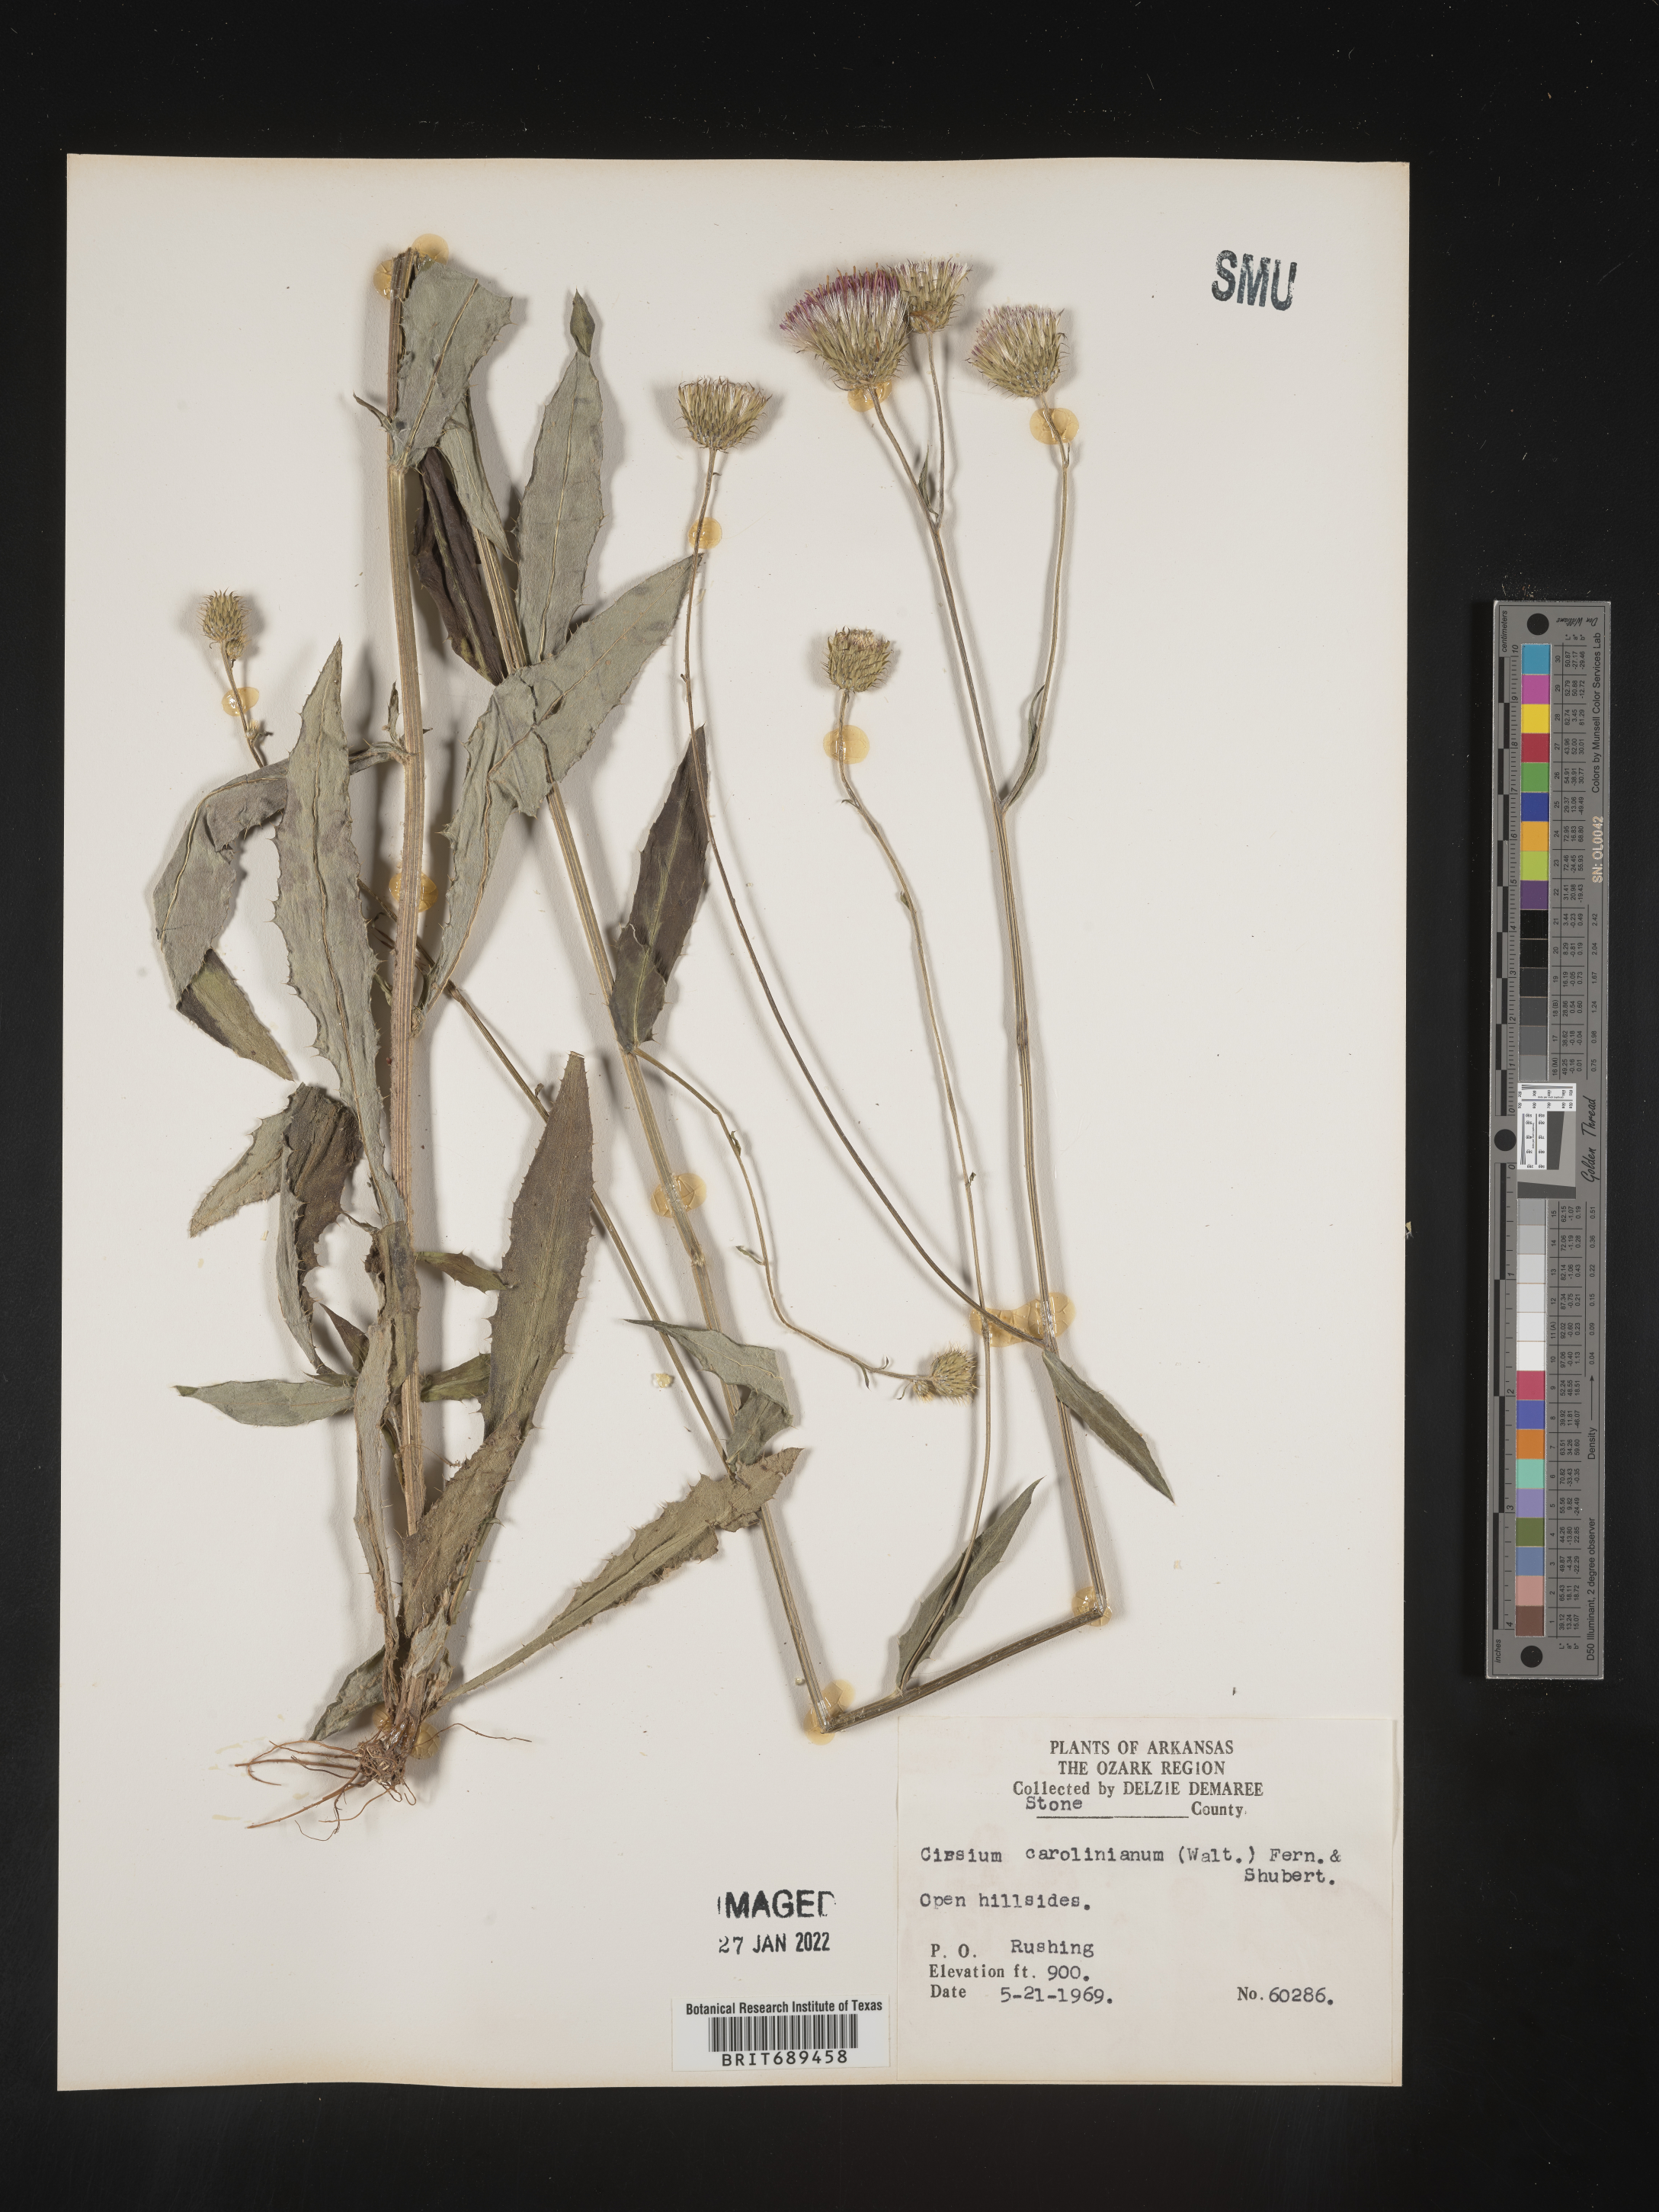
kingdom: Plantae
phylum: Tracheophyta
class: Magnoliopsida
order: Asterales
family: Asteraceae
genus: Cirsium
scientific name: Cirsium carolinianum
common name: Carolina thistle
